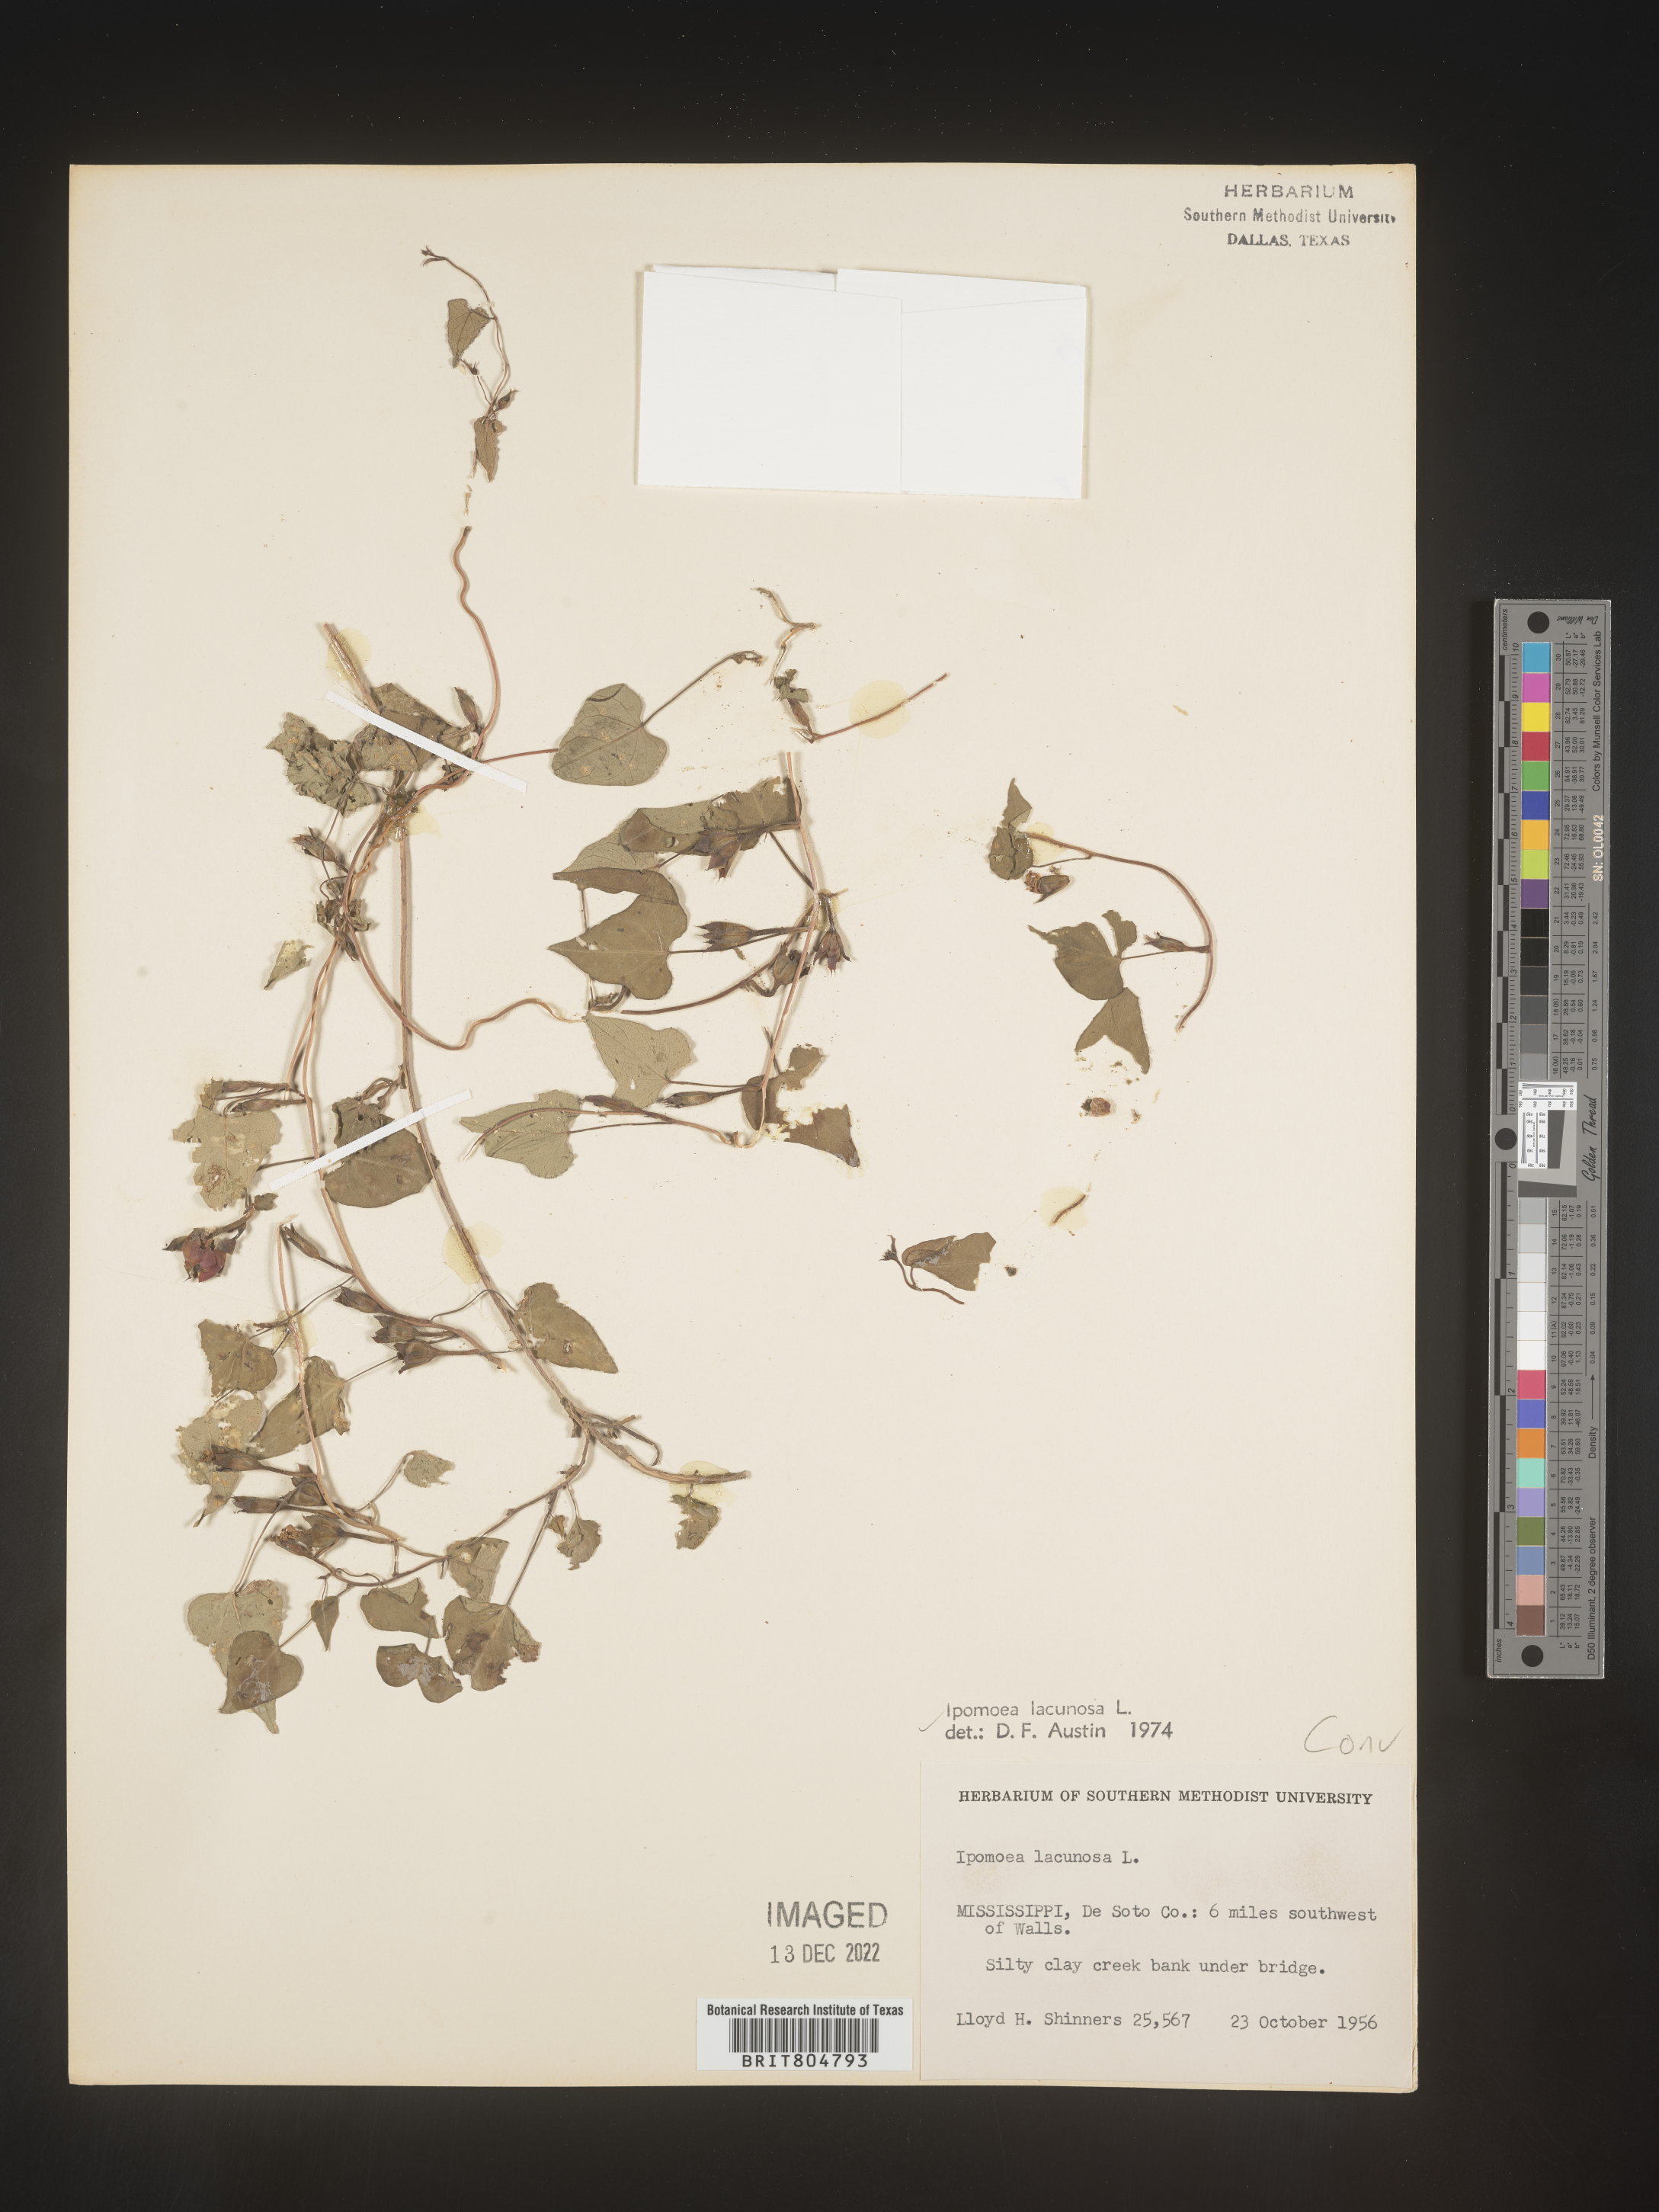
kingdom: Plantae
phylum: Tracheophyta
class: Magnoliopsida
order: Solanales
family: Convolvulaceae
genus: Ipomoea
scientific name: Ipomoea lacunosa
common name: White morning-glory
